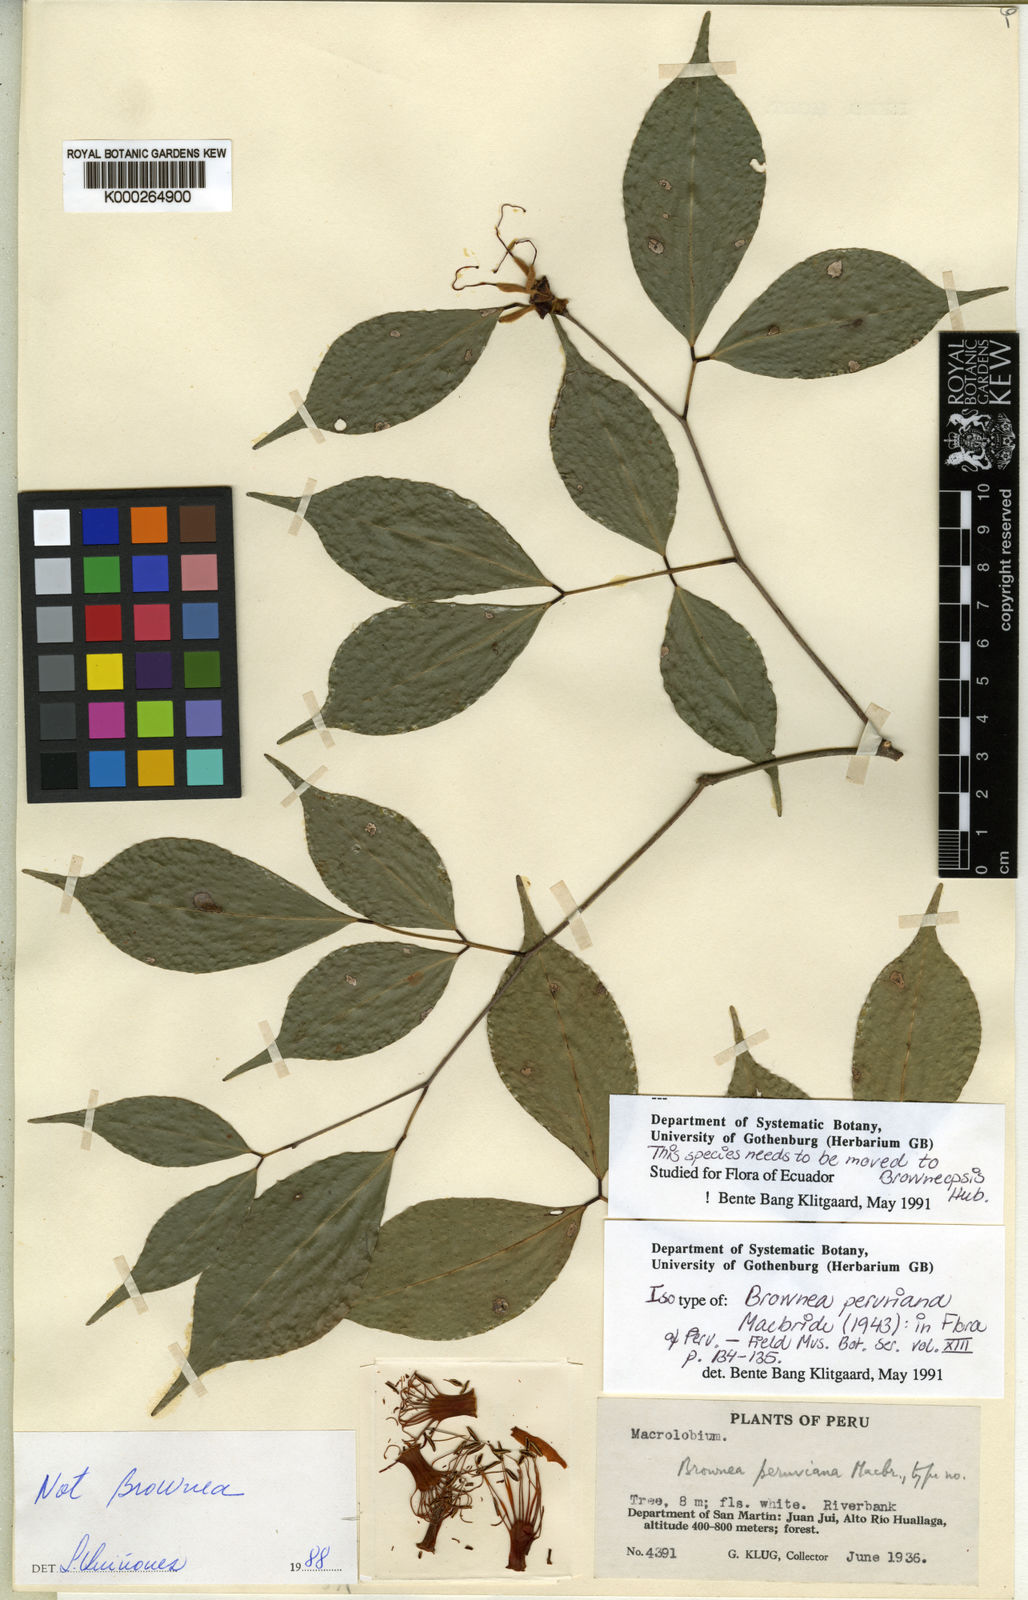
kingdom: Plantae
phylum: Tracheophyta
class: Magnoliopsida
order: Fabales
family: Fabaceae
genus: Browneopsis
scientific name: Browneopsis peruviana
